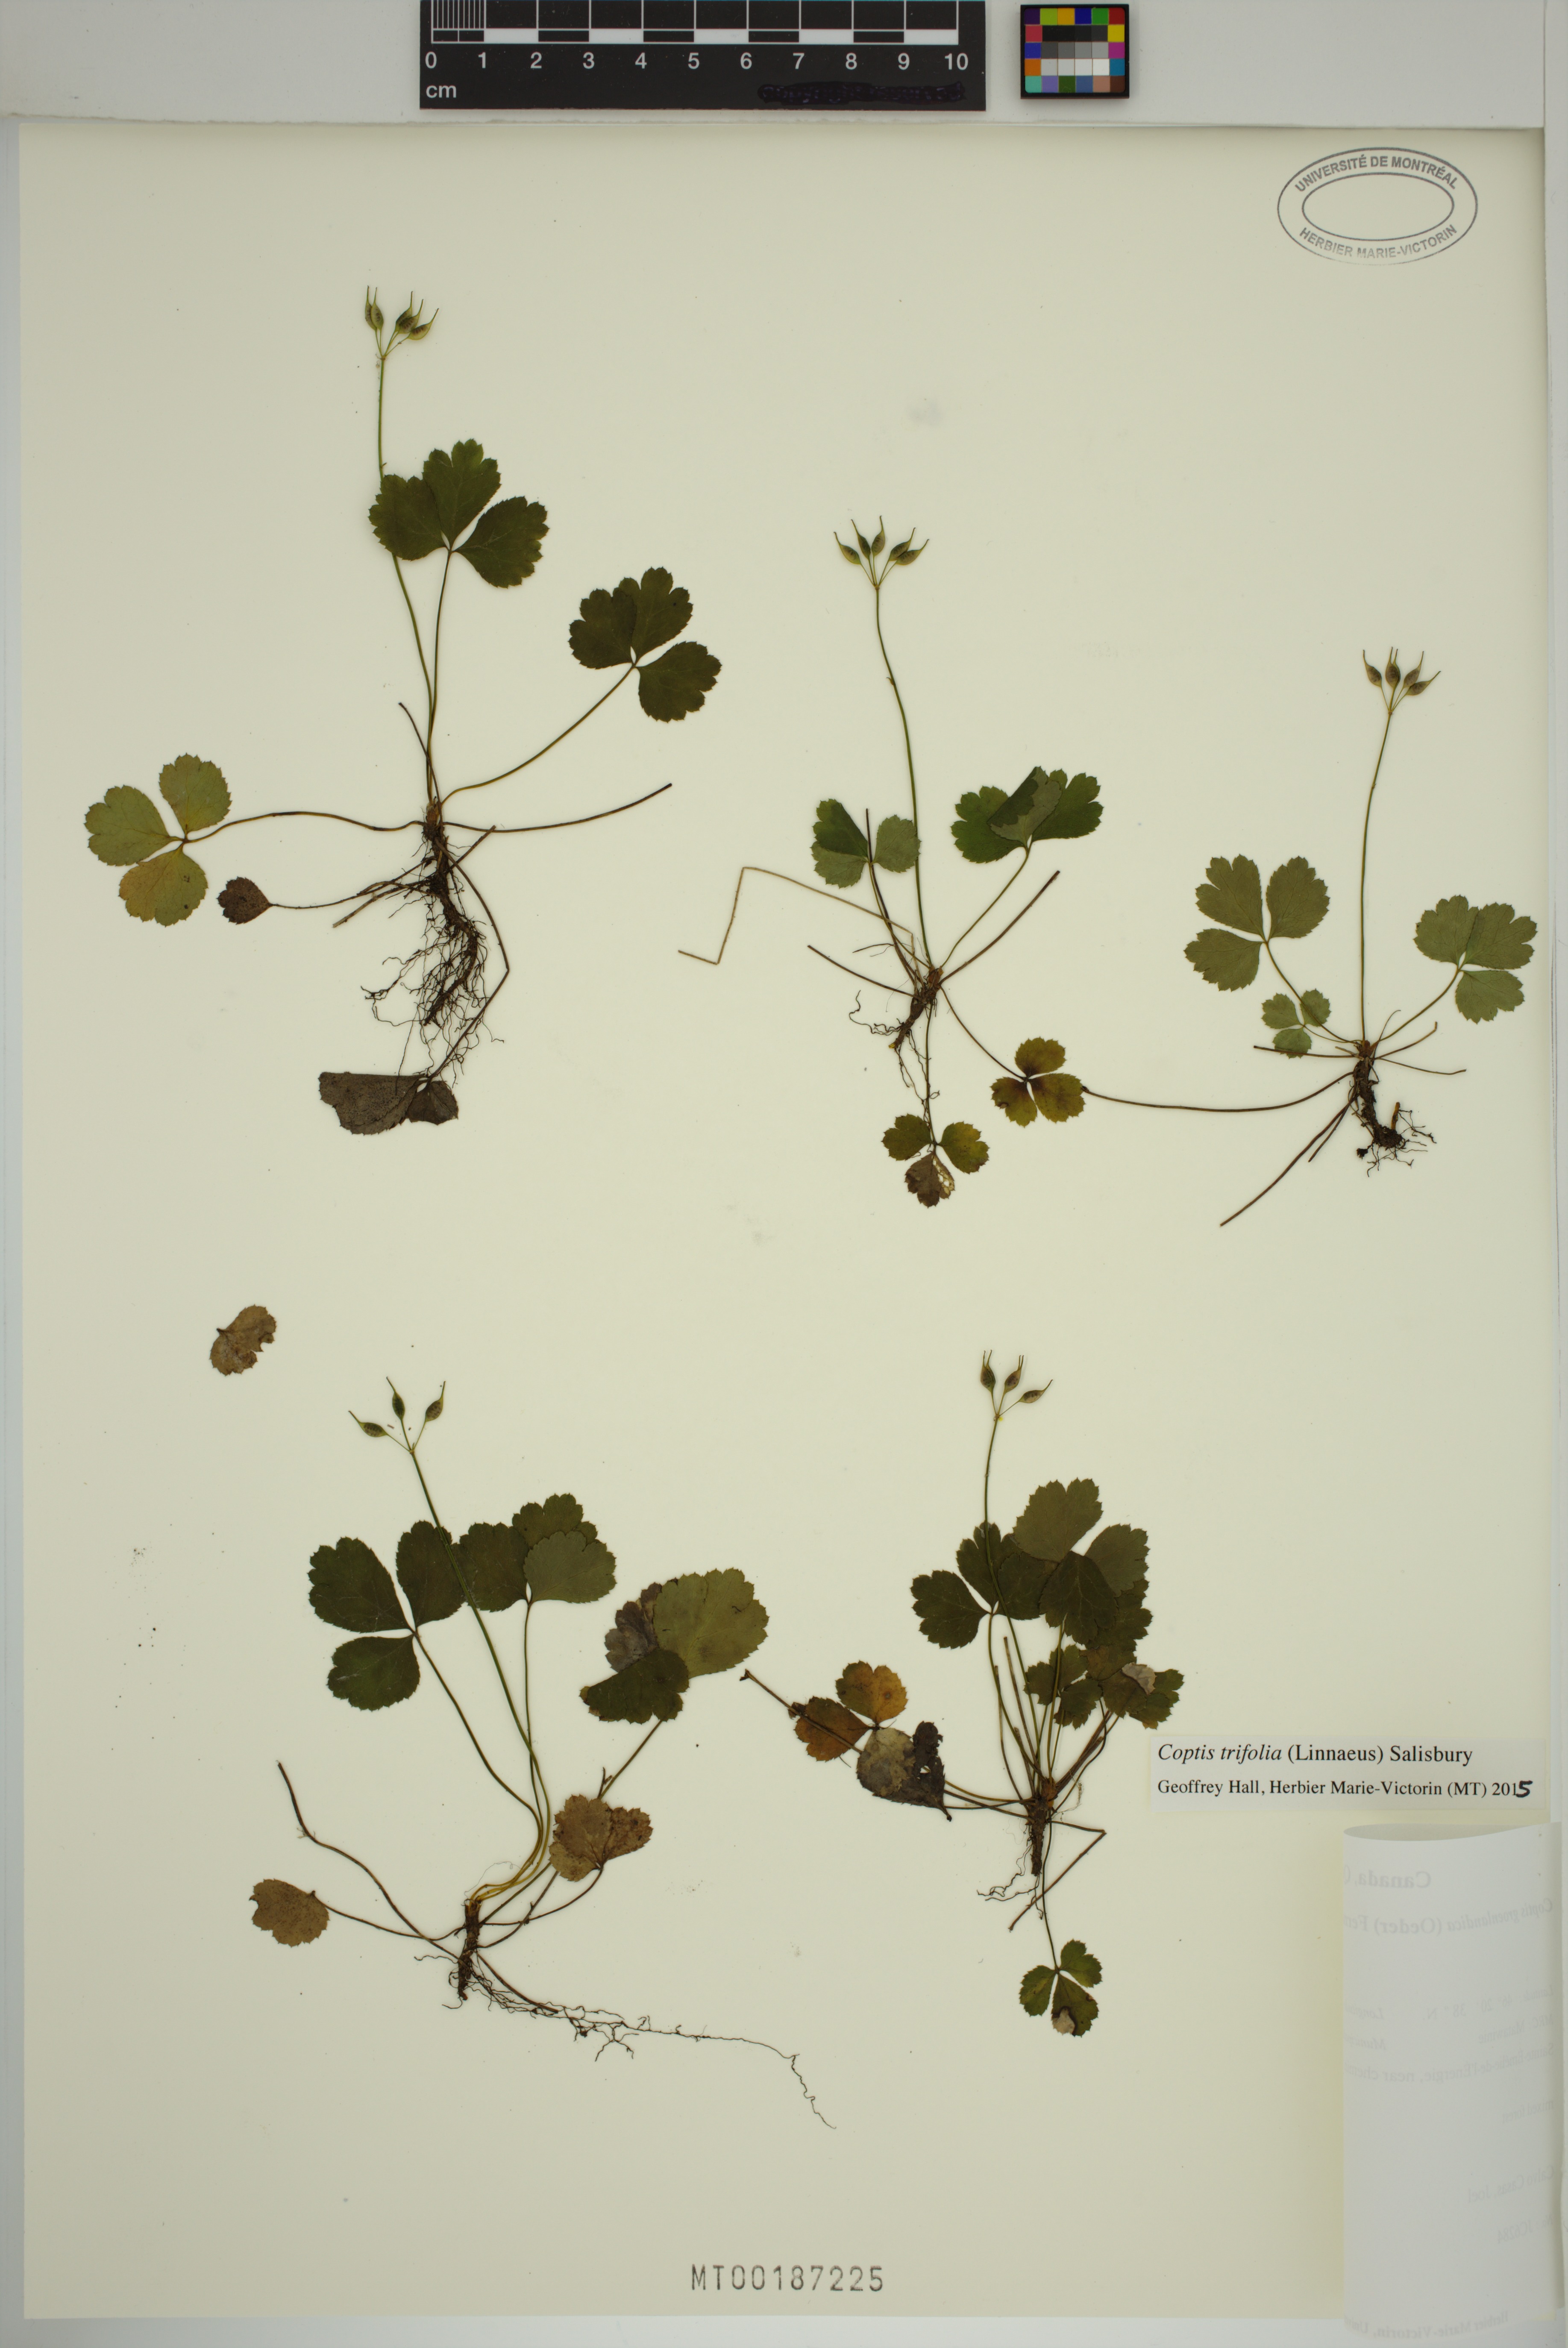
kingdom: Plantae
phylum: Tracheophyta
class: Magnoliopsida
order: Ranunculales
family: Ranunculaceae
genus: Coptis
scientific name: Coptis trifolia
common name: Canker-root
